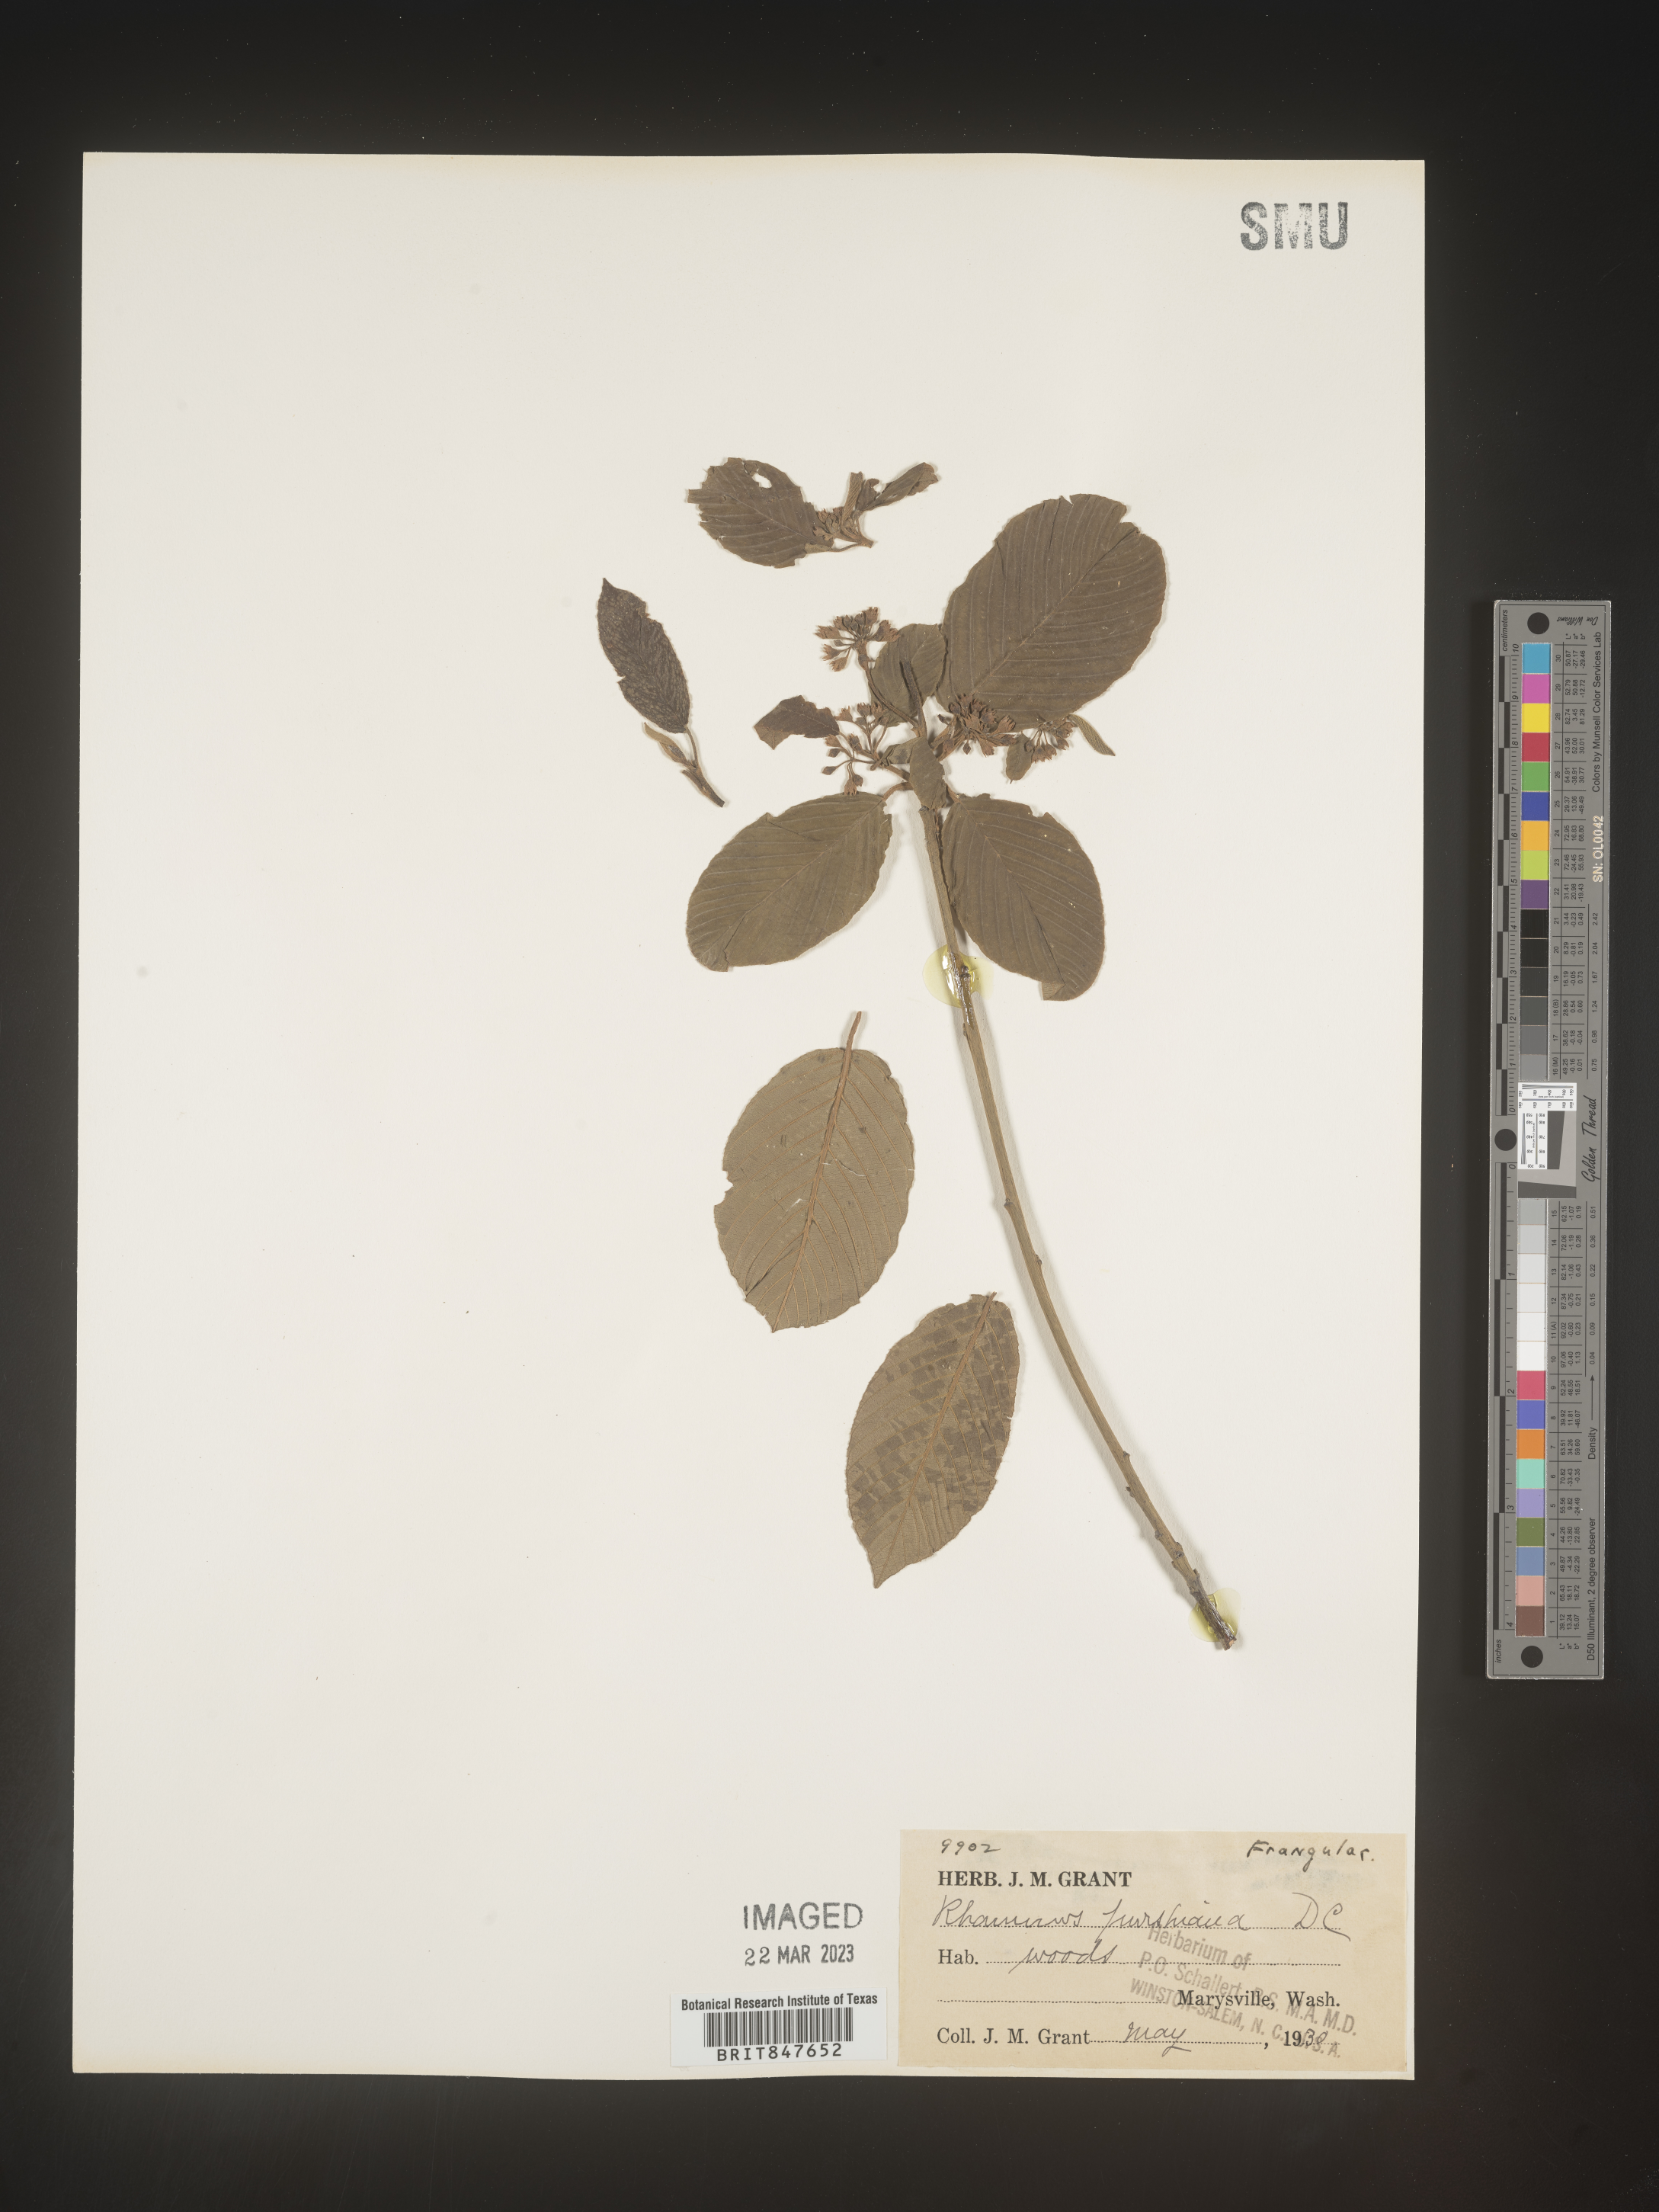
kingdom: Plantae
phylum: Tracheophyta
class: Magnoliopsida
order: Rosales
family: Rhamnaceae
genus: Frangula
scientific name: Frangula purshiana
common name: Cascara buckthorn
